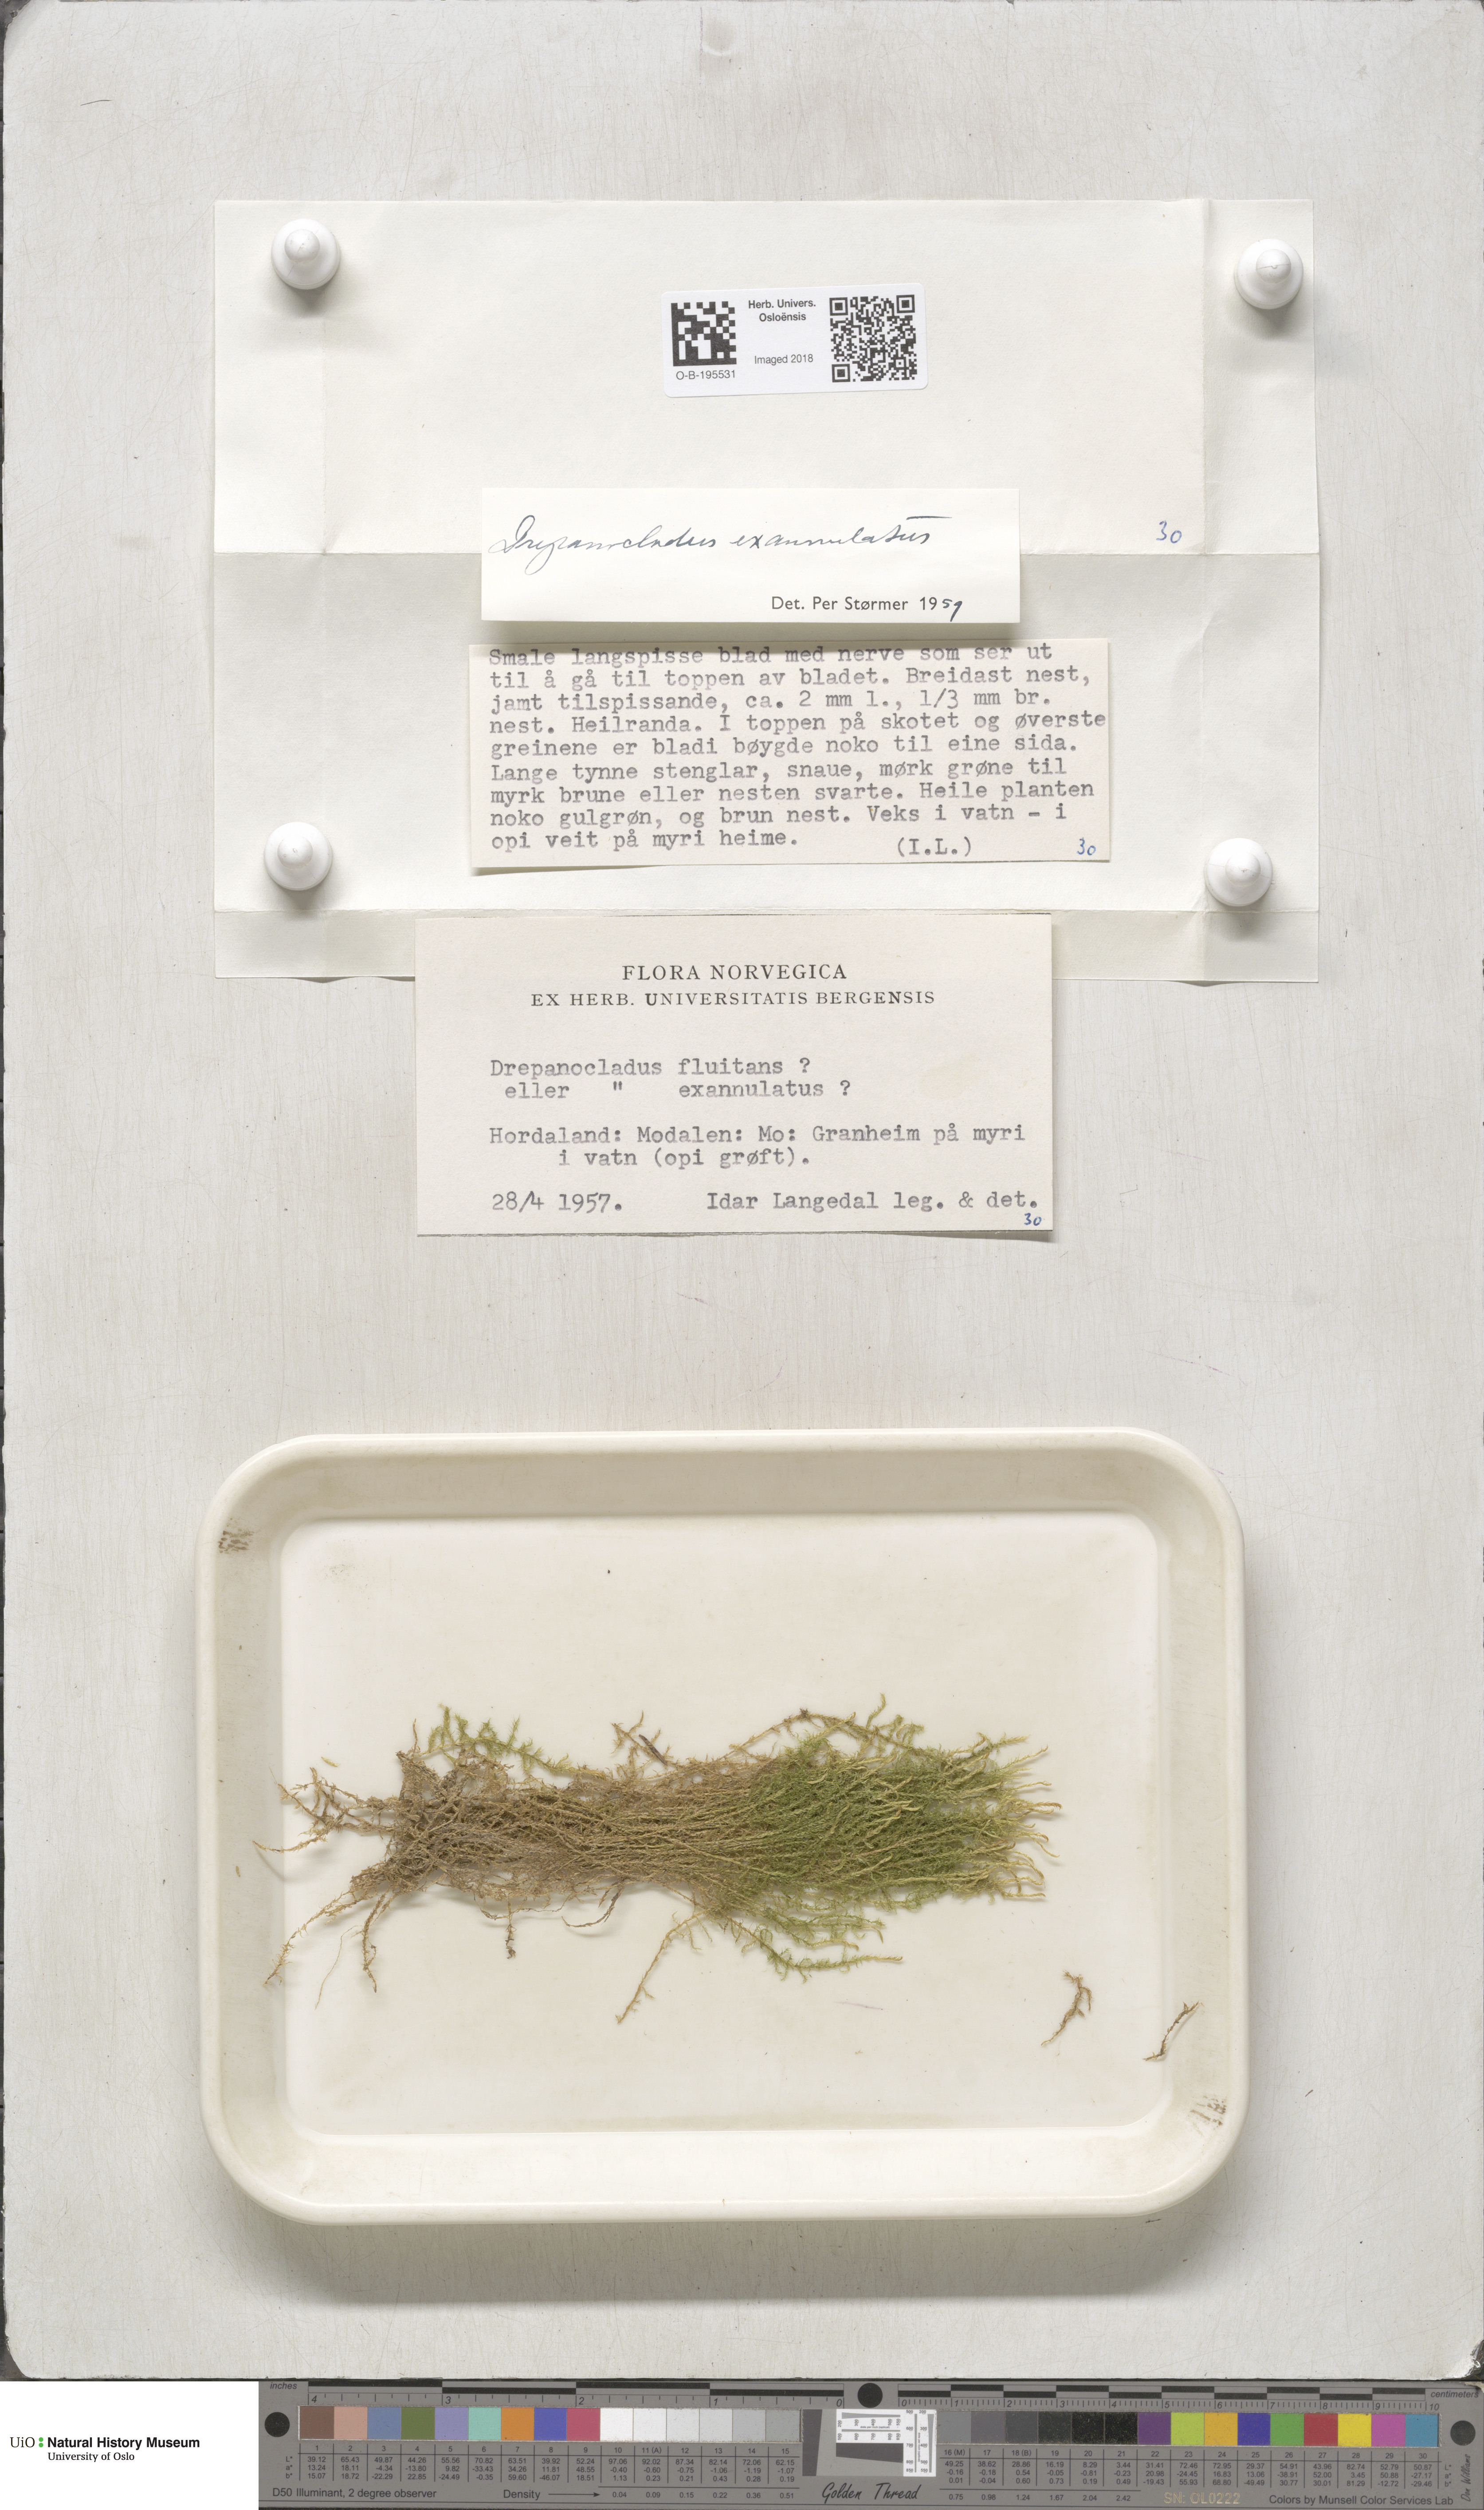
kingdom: Plantae
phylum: Bryophyta
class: Bryopsida
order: Hypnales
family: Calliergonaceae
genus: Warnstorfia
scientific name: Warnstorfia fluitans
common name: Floating hook moss
